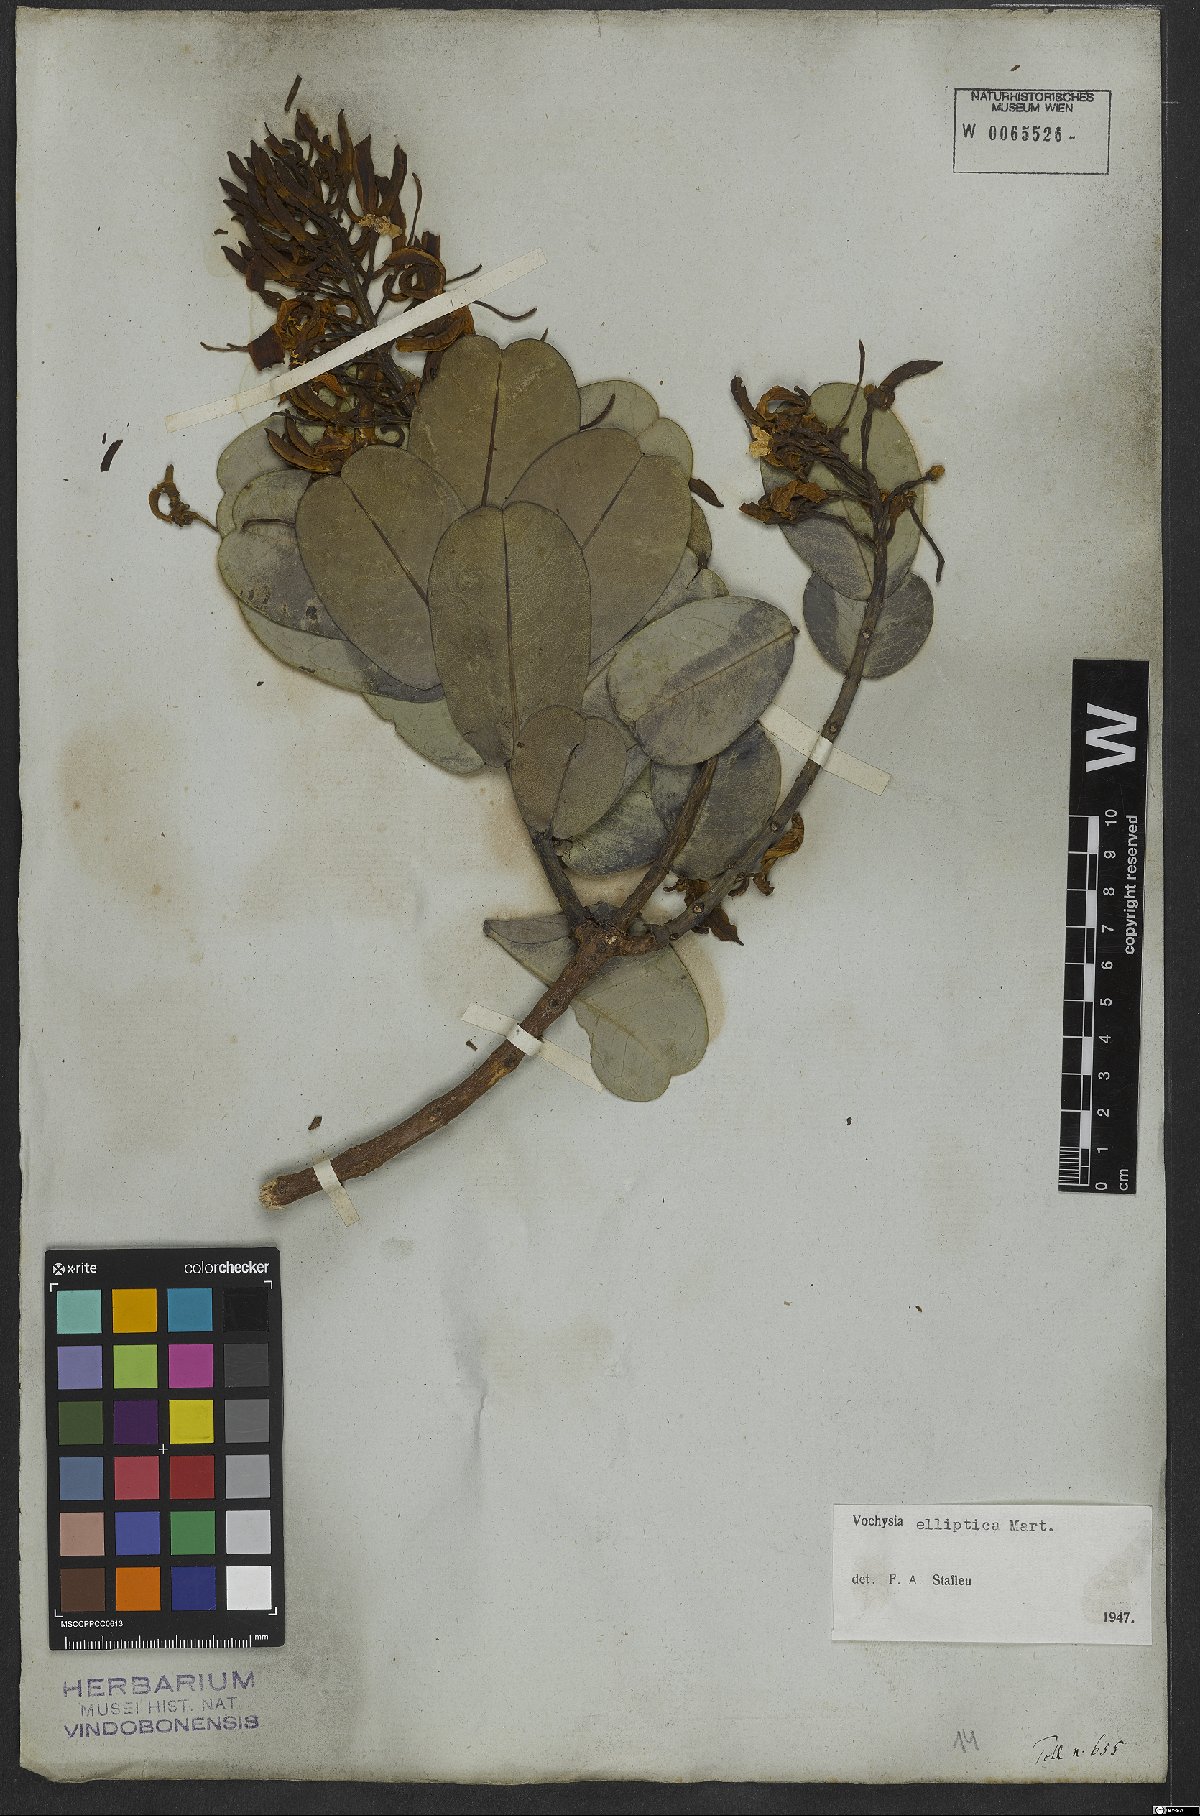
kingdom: Plantae
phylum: Tracheophyta
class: Magnoliopsida
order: Myrtales
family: Vochysiaceae
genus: Vochysia
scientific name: Vochysia elliptica
